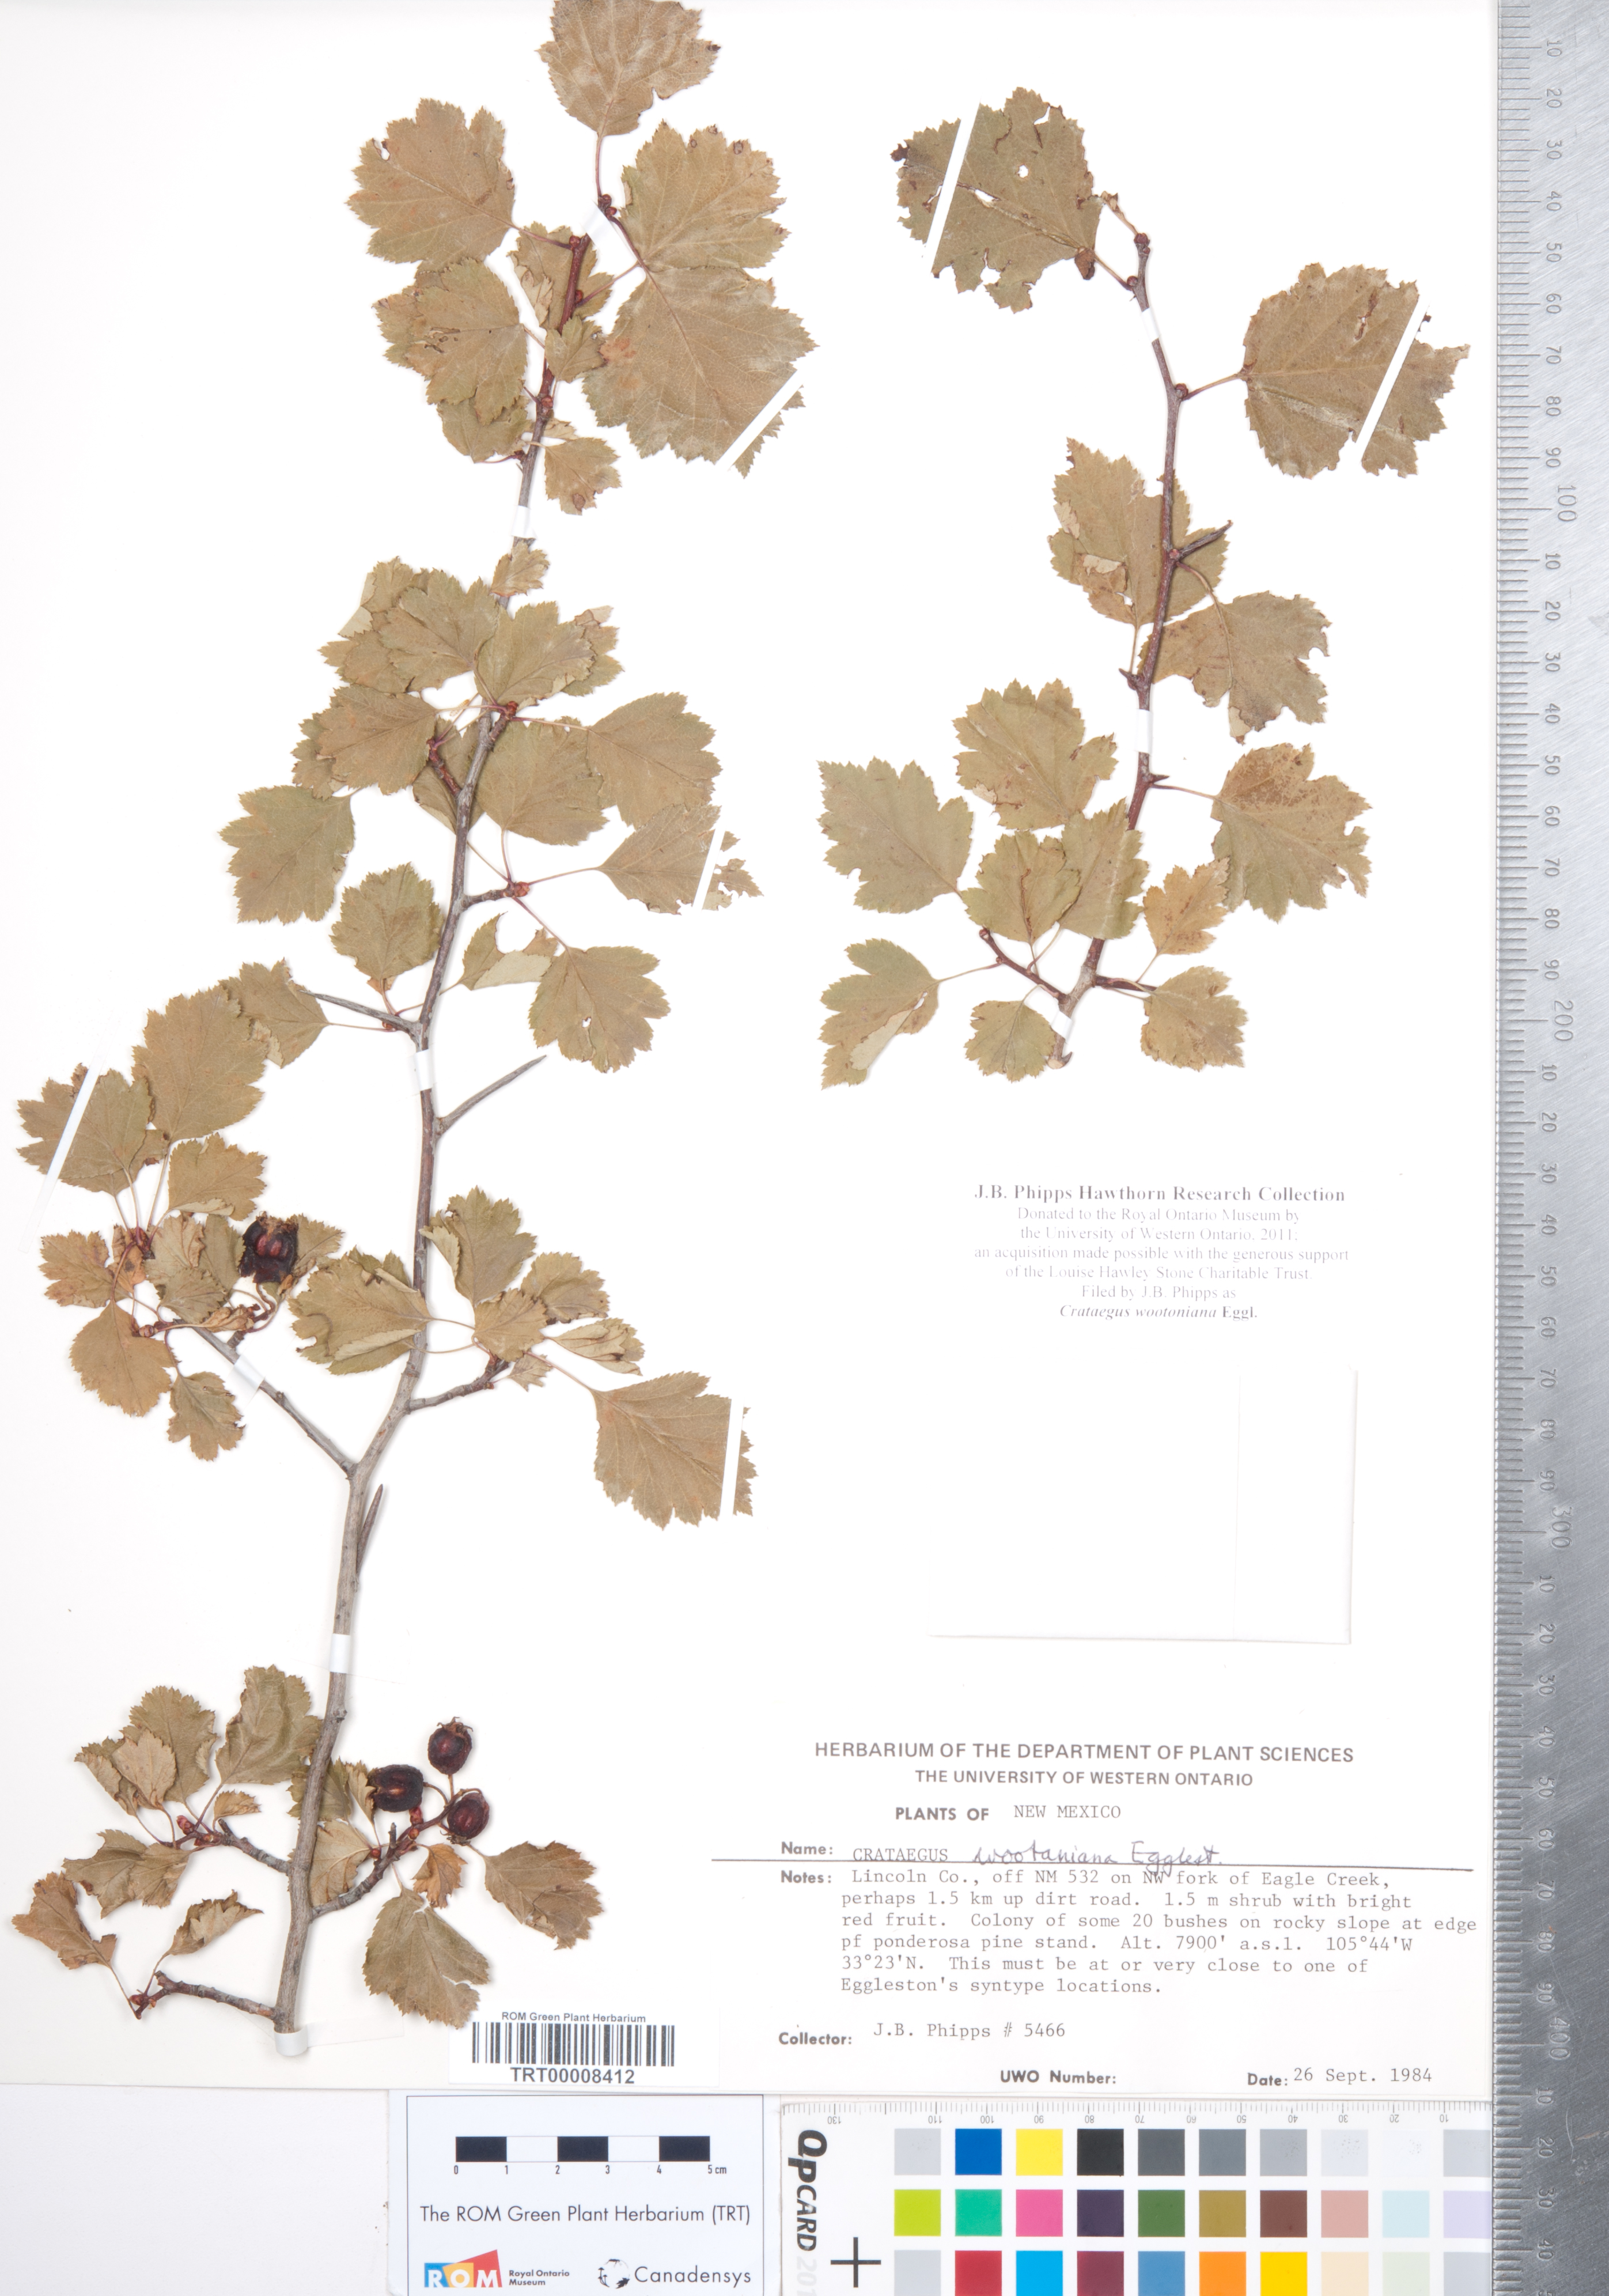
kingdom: Plantae
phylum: Tracheophyta
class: Magnoliopsida
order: Rosales
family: Rosaceae
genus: Crataegus
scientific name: Crataegus wootoniana
